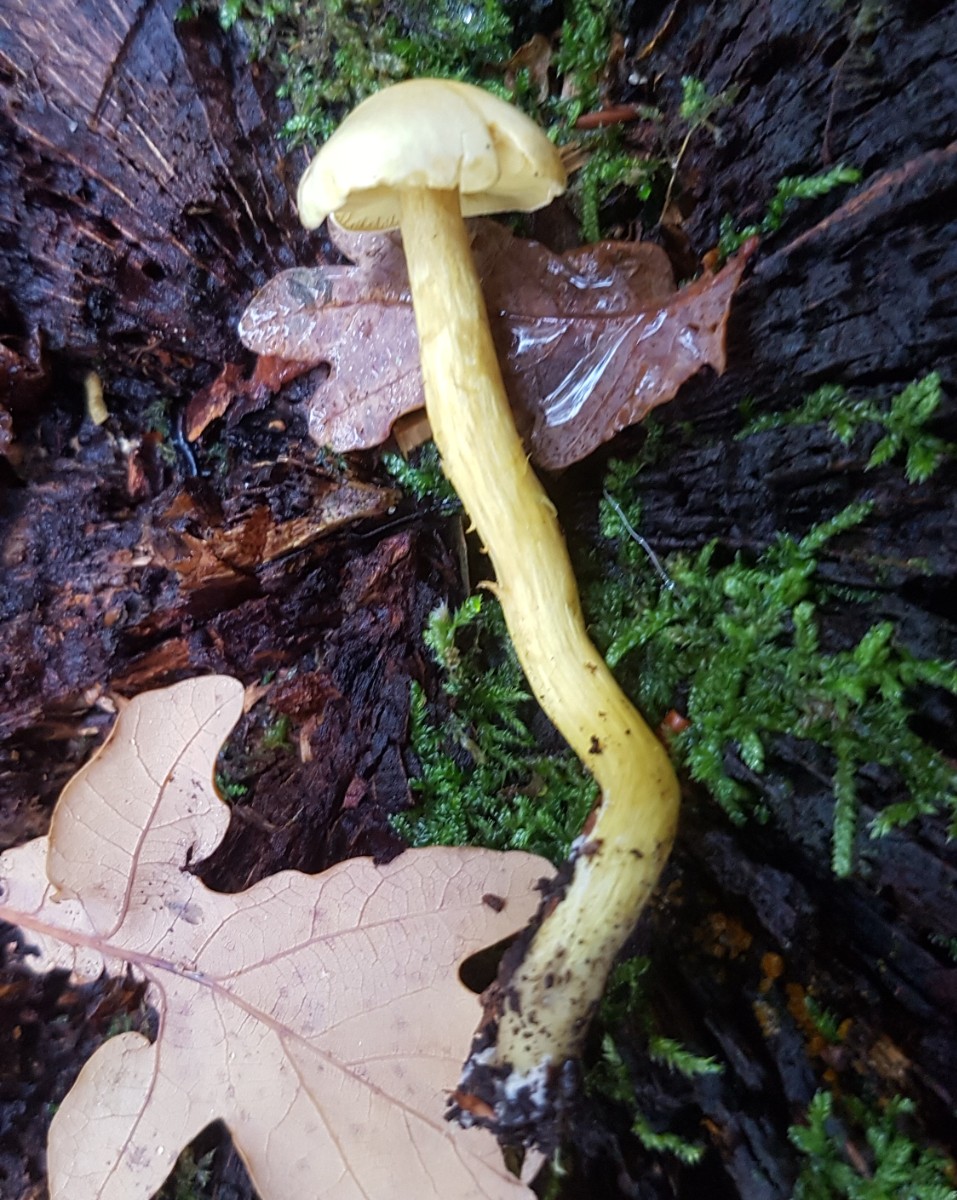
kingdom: Fungi
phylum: Basidiomycota
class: Agaricomycetes
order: Agaricales
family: Tricholomataceae
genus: Tricholoma
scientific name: Tricholoma sulphureum
